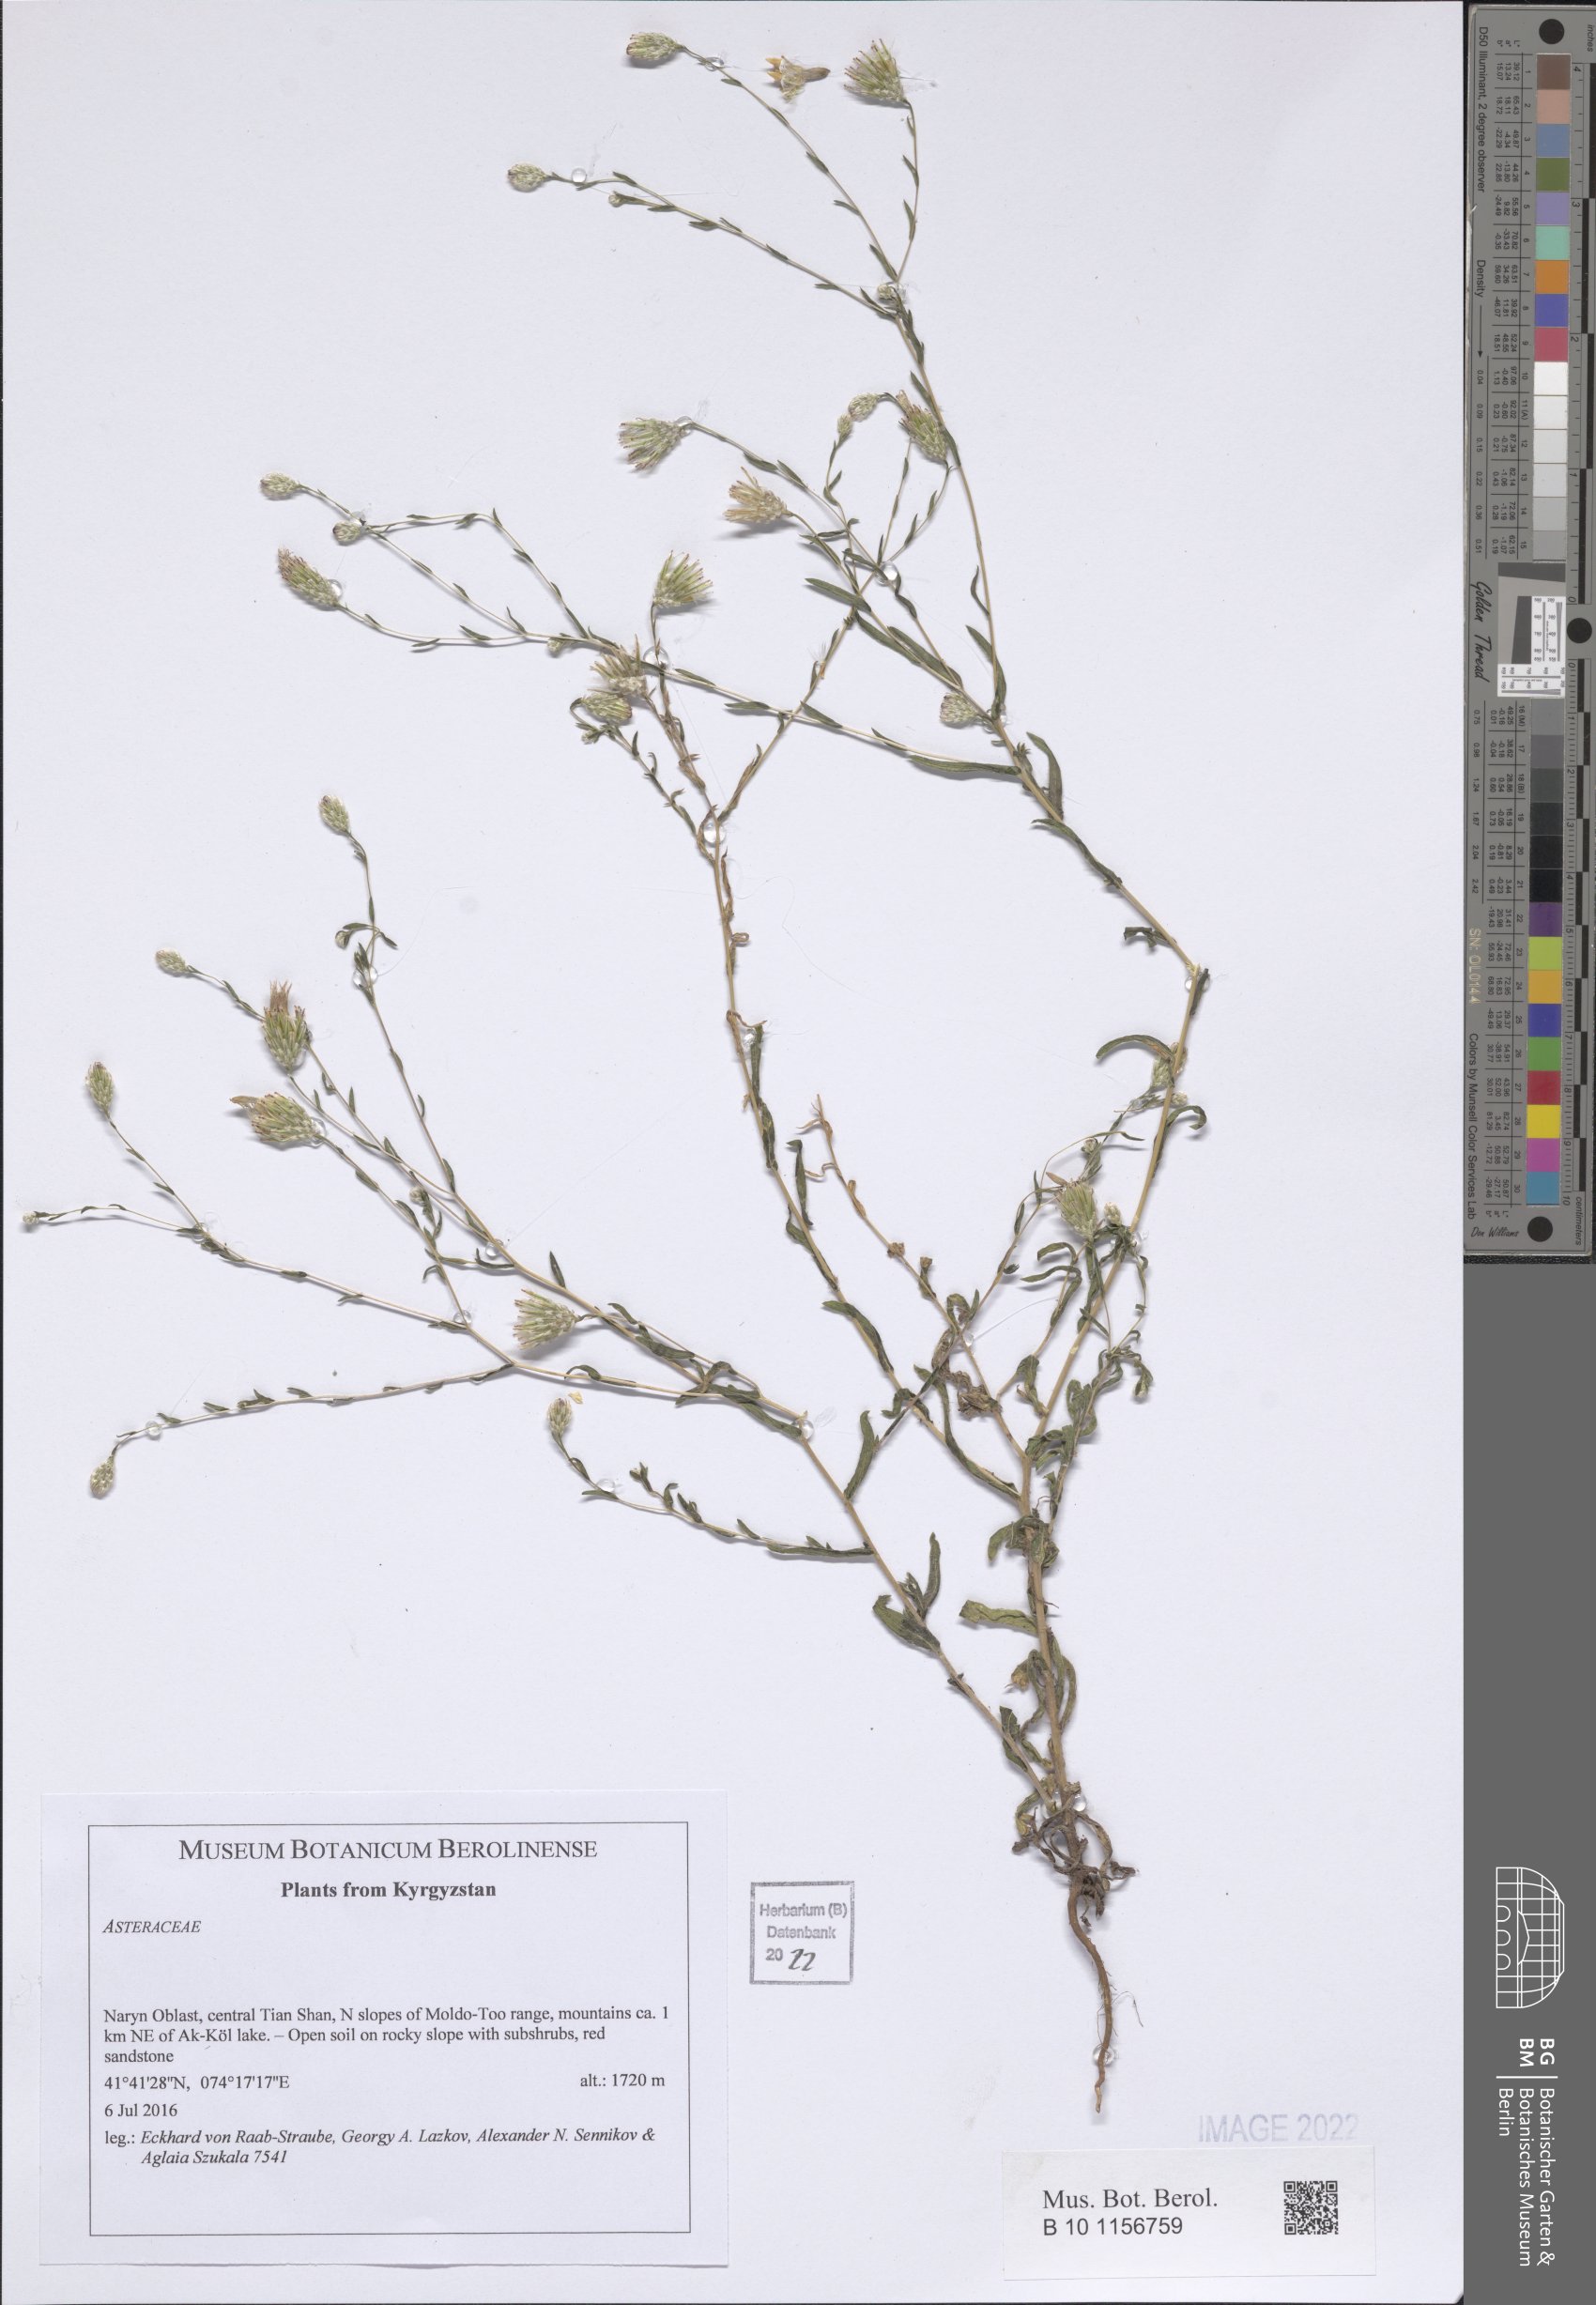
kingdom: Plantae
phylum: Tracheophyta
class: Magnoliopsida
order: Asterales
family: Asteraceae
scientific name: Asteraceae
